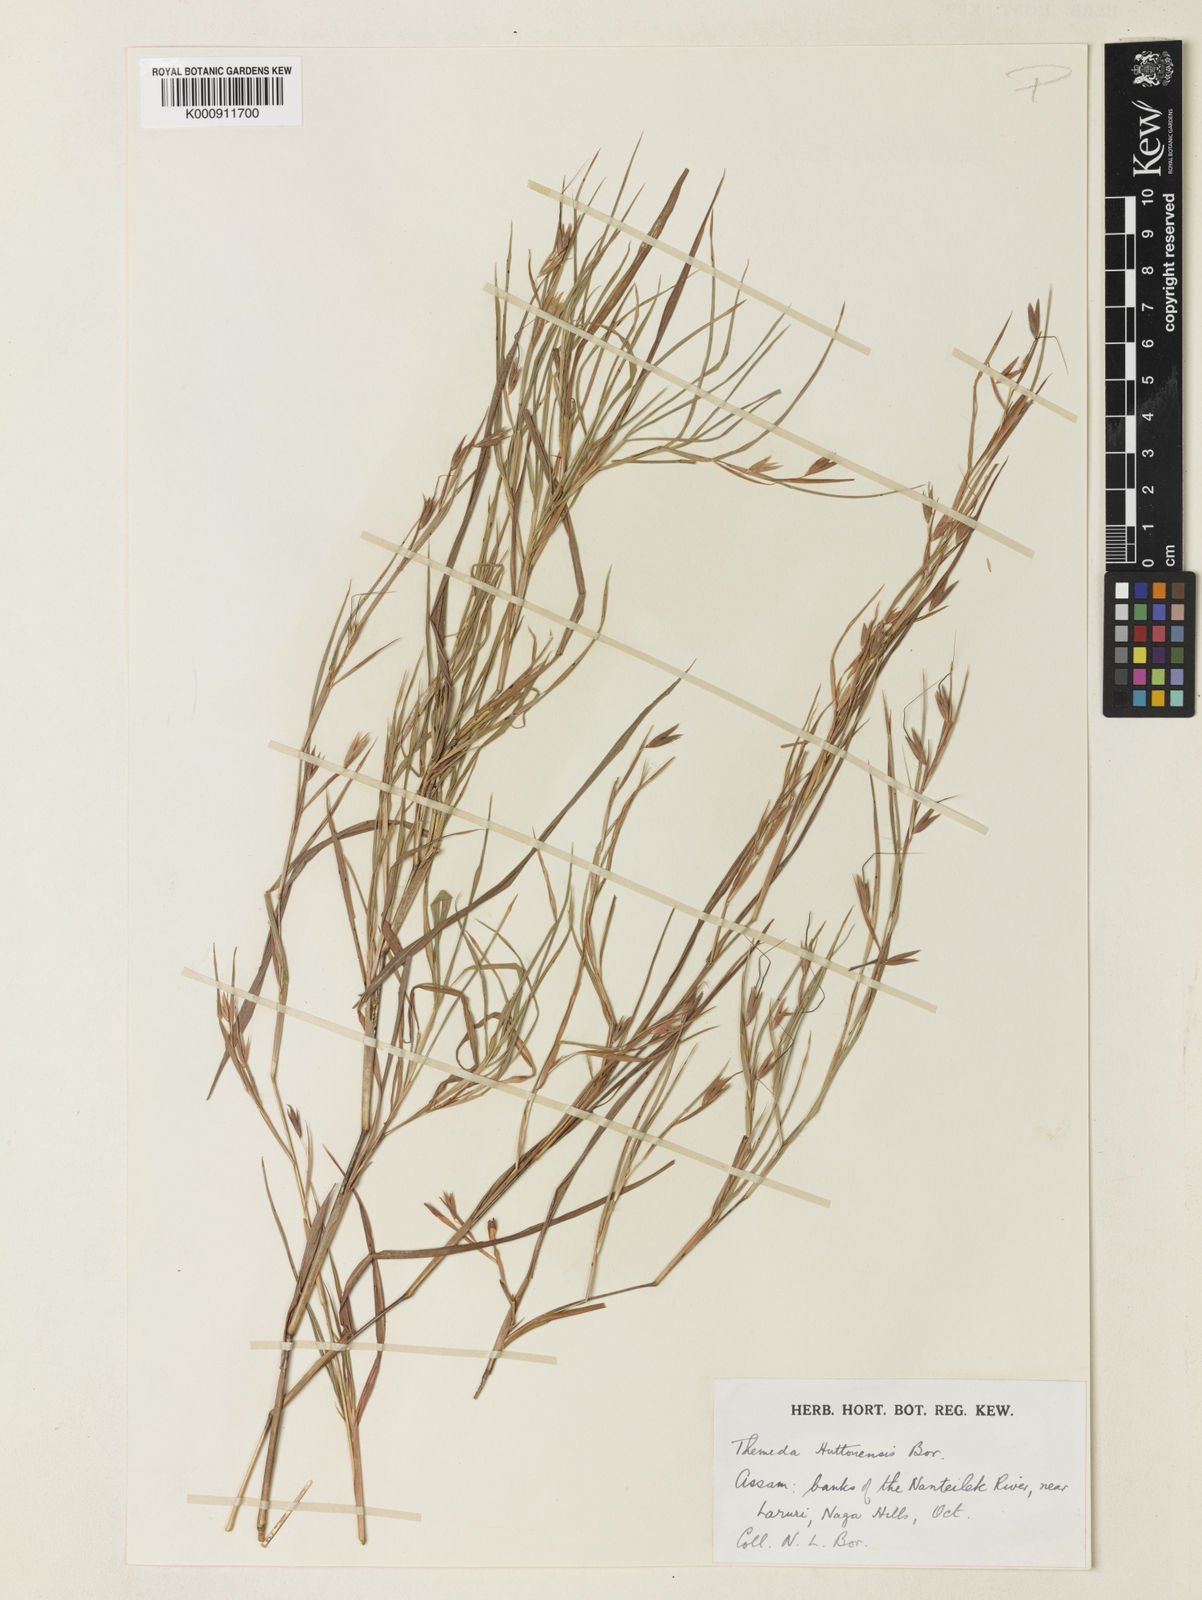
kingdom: Plantae
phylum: Tracheophyta
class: Liliopsida
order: Poales
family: Poaceae
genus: Themeda
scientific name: Themeda huttonensis
